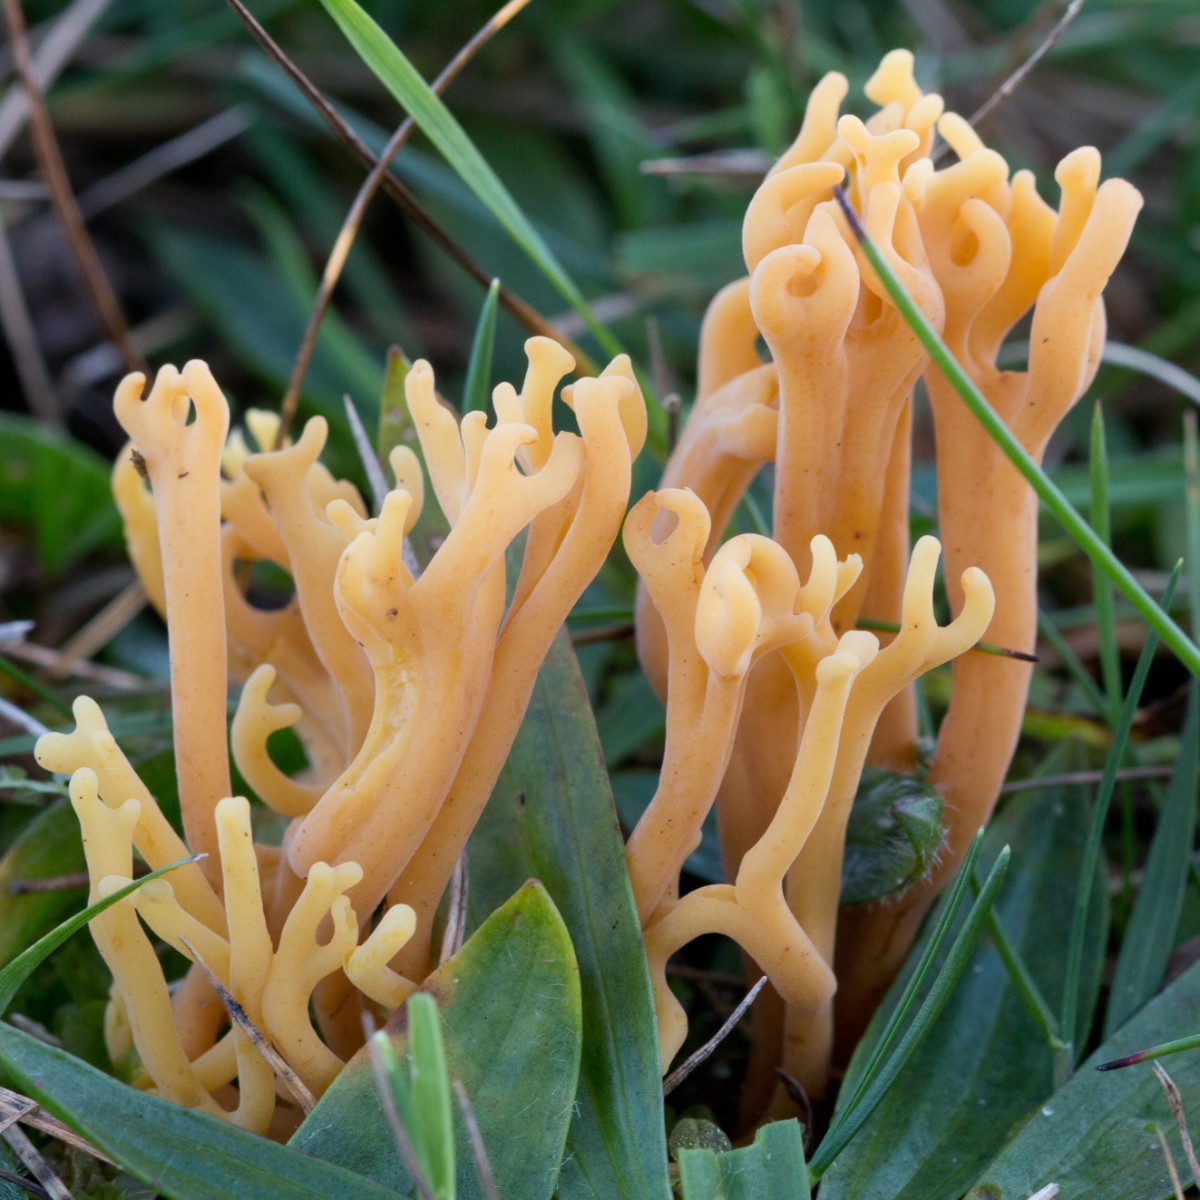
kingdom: Fungi
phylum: Basidiomycota
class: Agaricomycetes
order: Agaricales
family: Clavariaceae
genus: Clavulinopsis
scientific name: Clavulinopsis corniculata
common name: eng-køllesvamp
